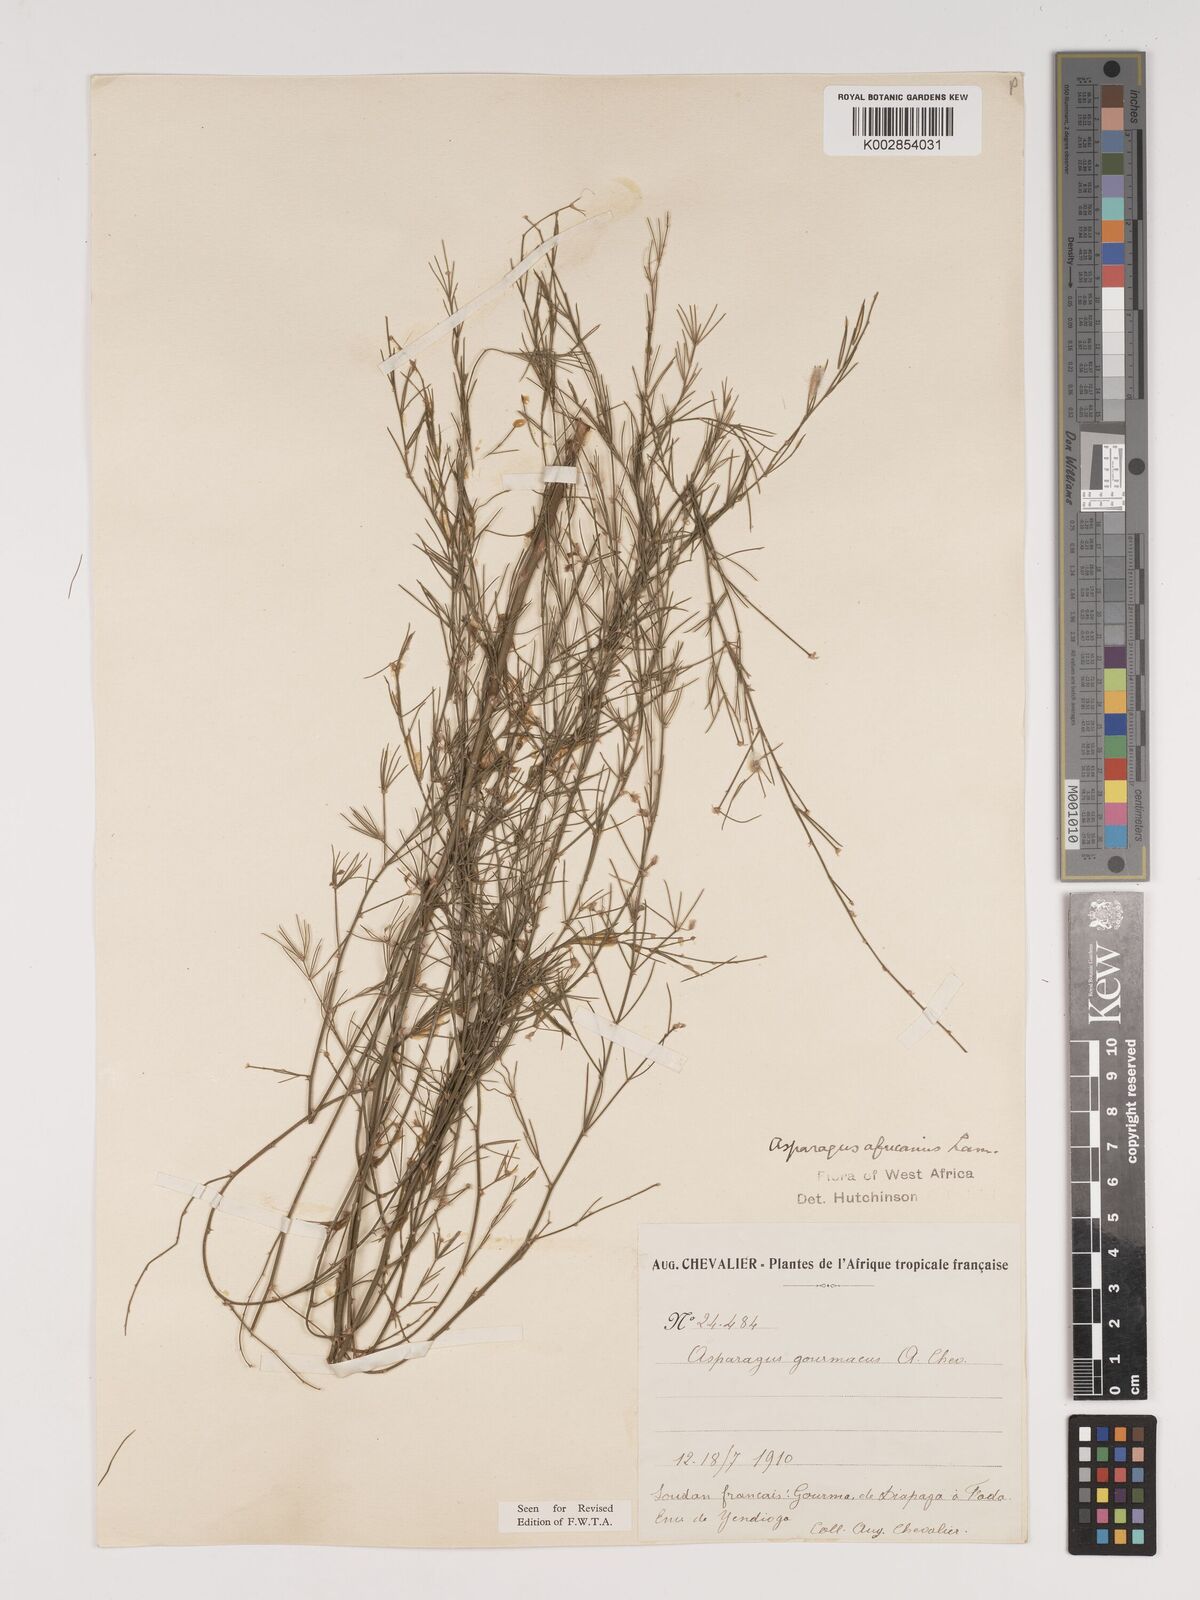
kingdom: Plantae
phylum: Tracheophyta
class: Liliopsida
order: Asparagales
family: Asparagaceae
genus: Asparagus
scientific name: Asparagus
